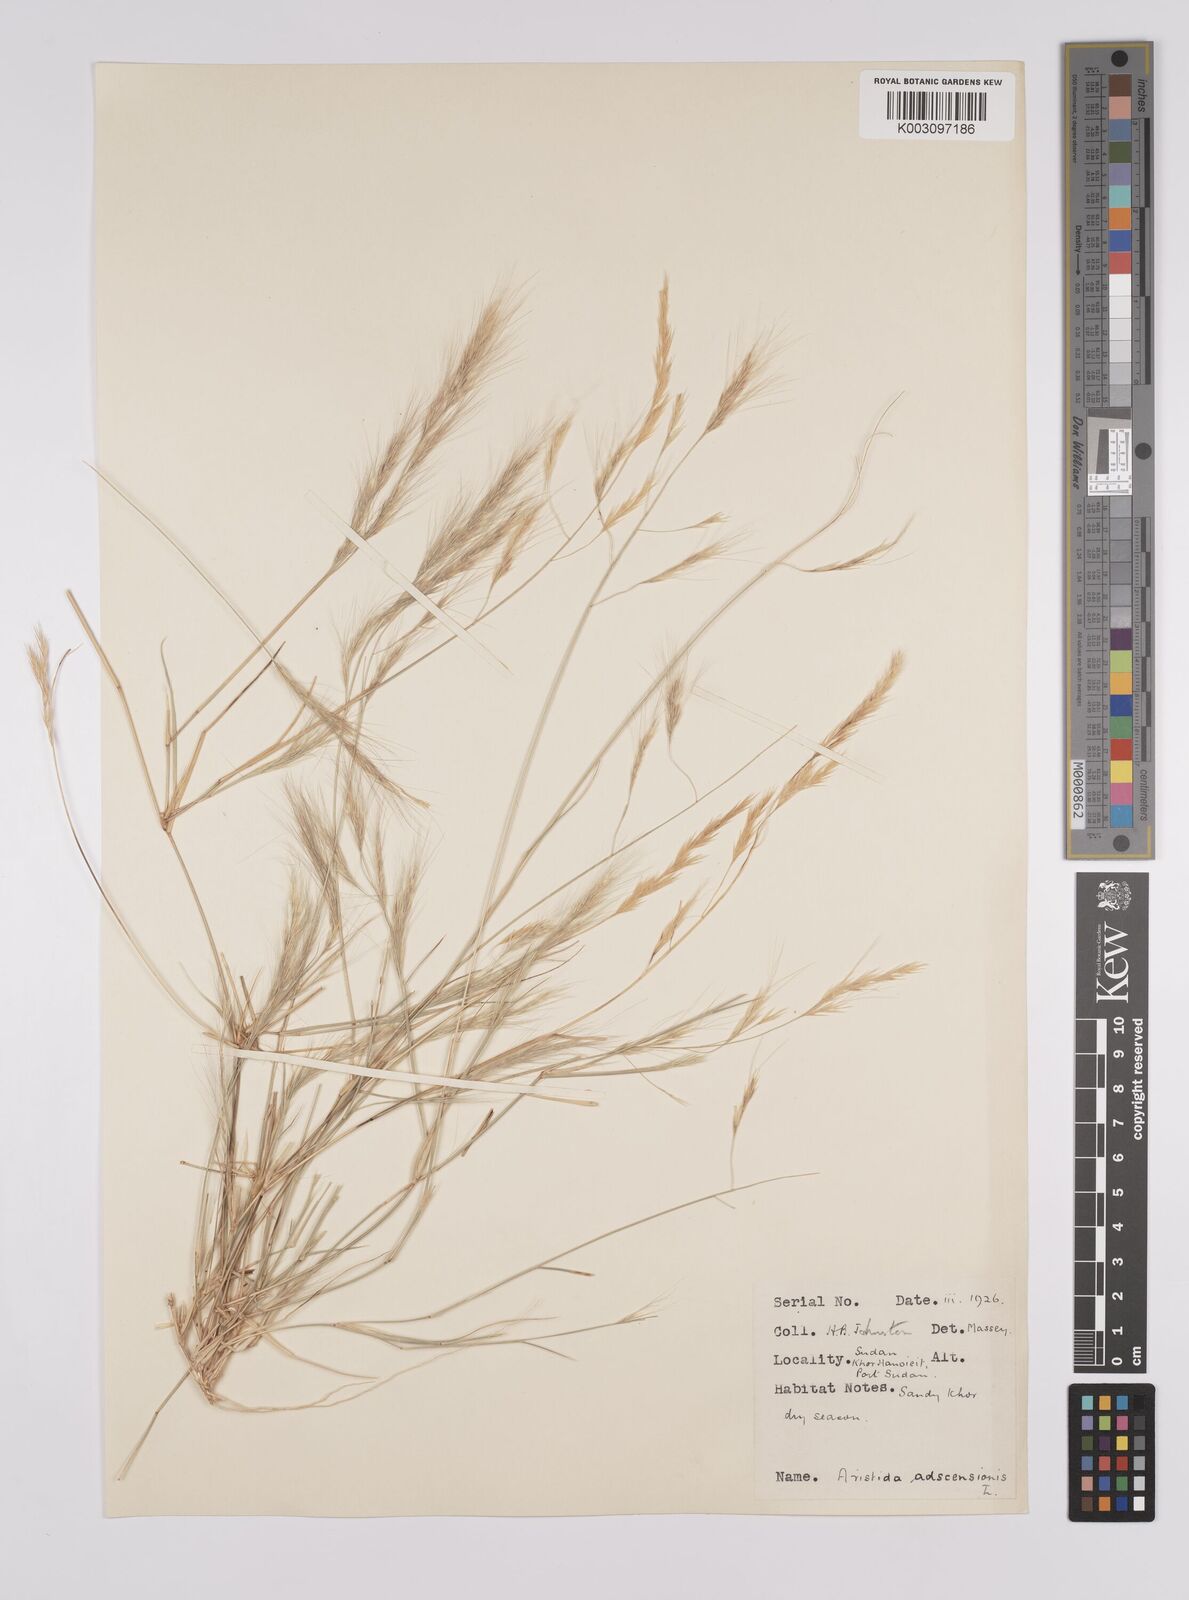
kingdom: Plantae
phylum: Tracheophyta
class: Liliopsida
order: Poales
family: Poaceae
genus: Aristida
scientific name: Aristida mutabilis
